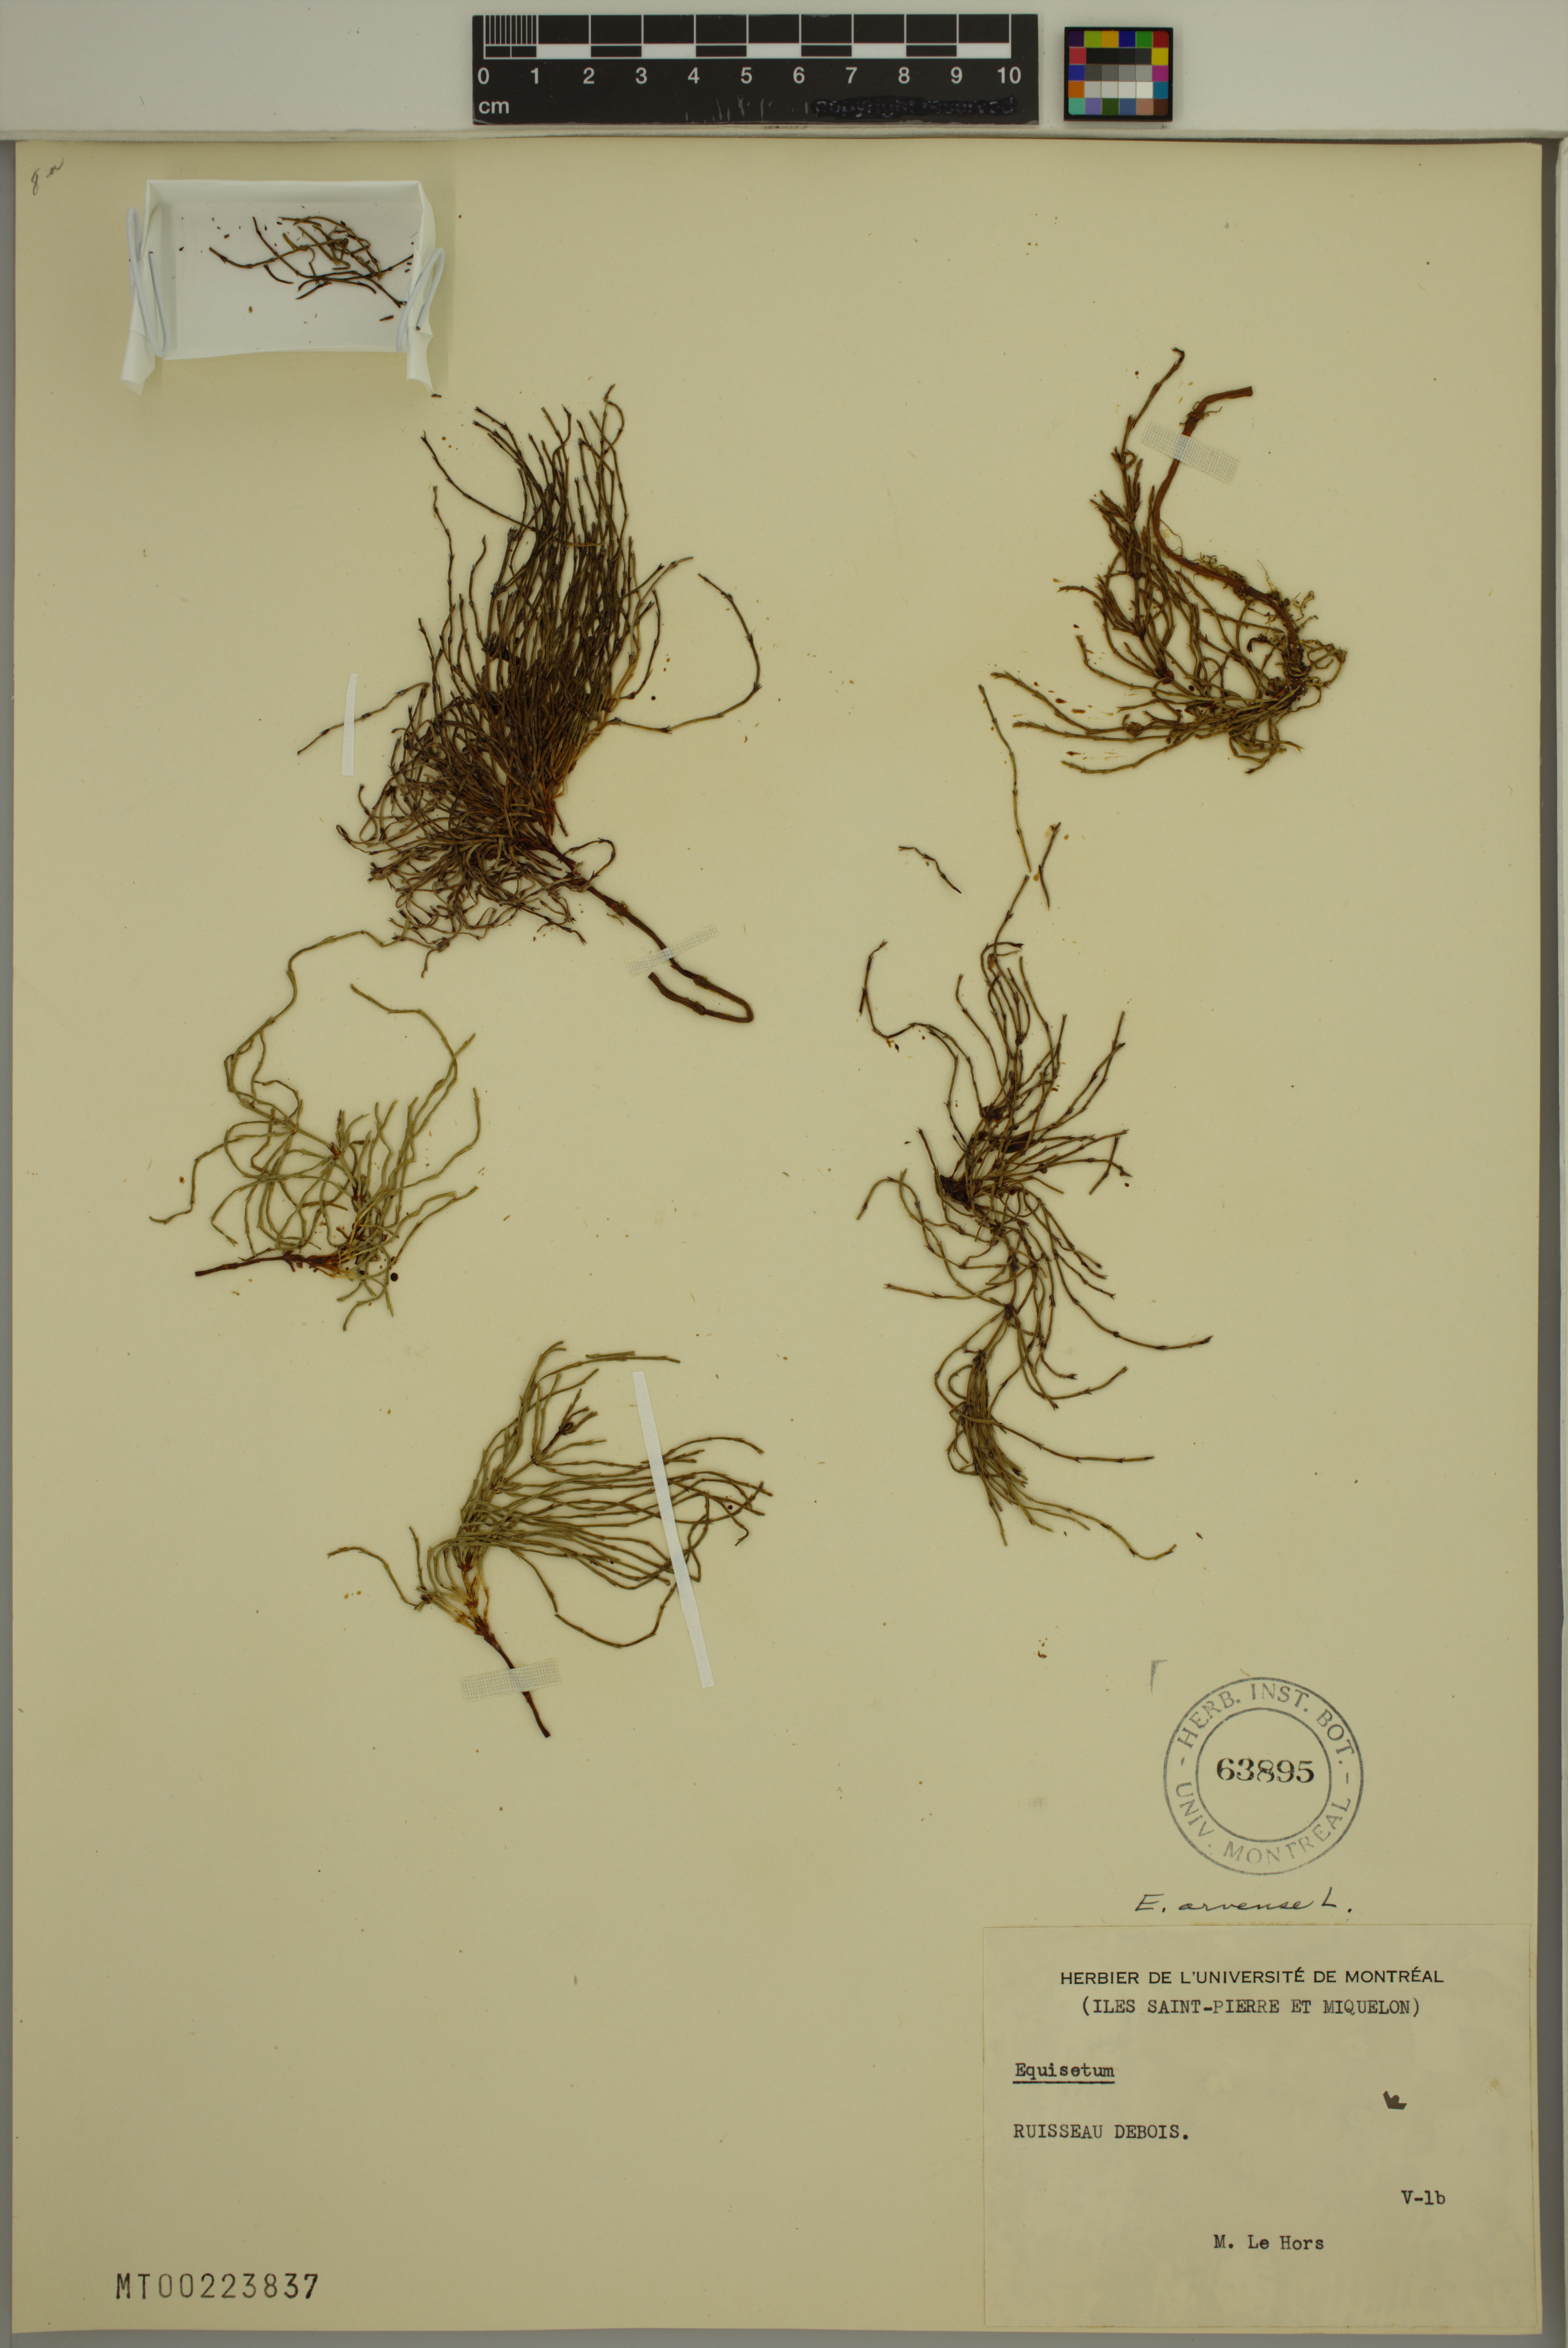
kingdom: Plantae
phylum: Tracheophyta
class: Polypodiopsida
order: Equisetales
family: Equisetaceae
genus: Equisetum
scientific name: Equisetum arvense
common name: Field horsetail
